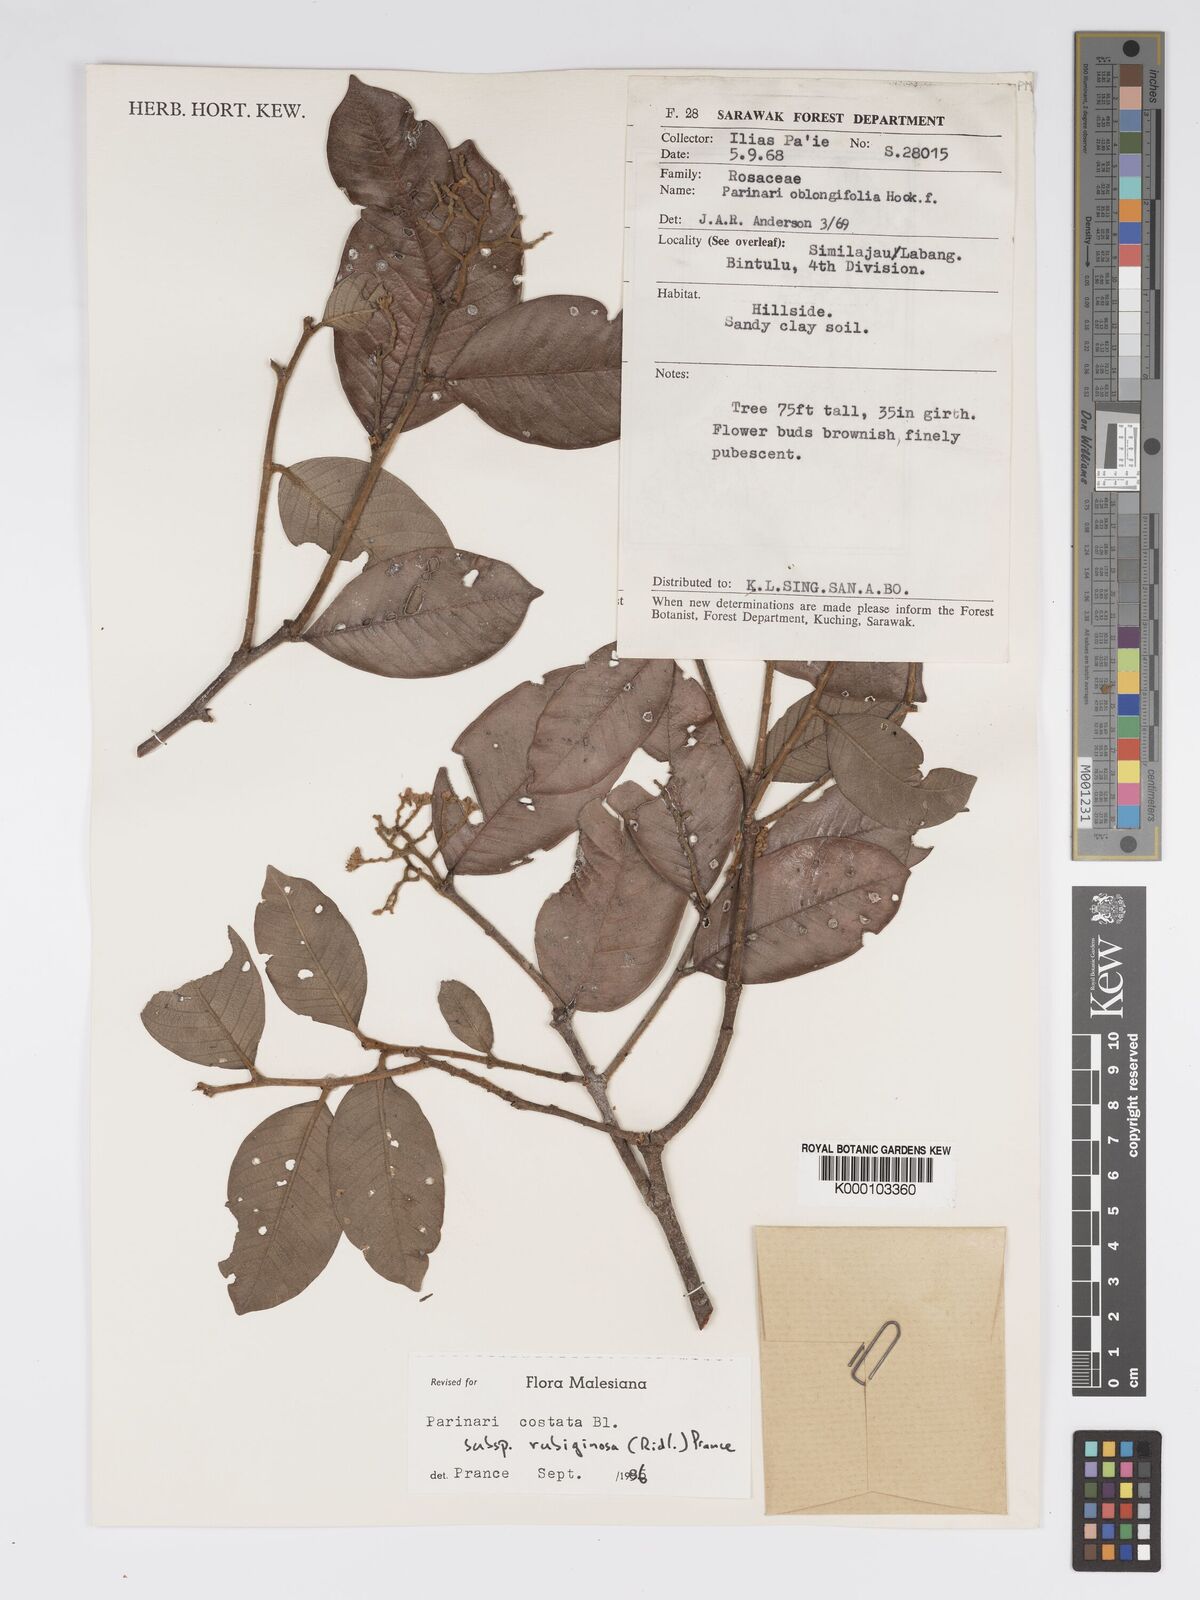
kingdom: Plantae
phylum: Tracheophyta
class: Magnoliopsida
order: Malpighiales
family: Chrysobalanaceae
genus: Parinari
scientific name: Parinari costata
